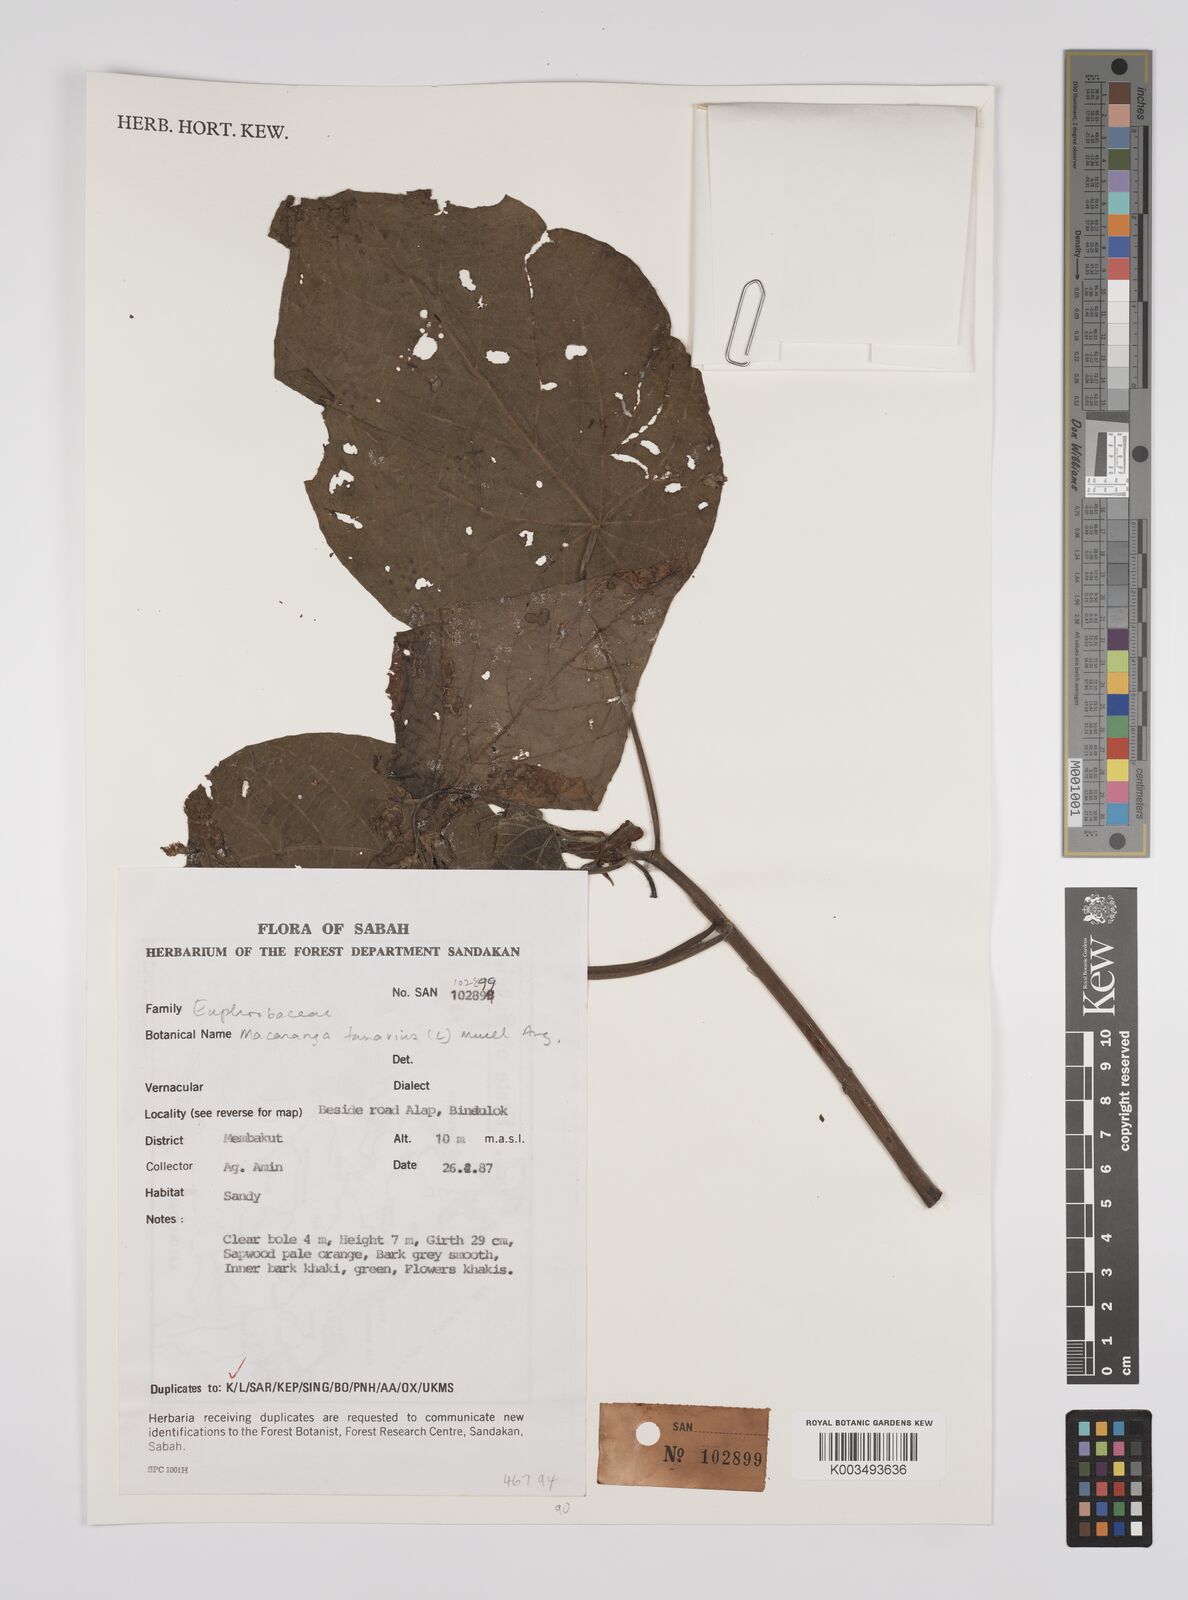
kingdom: Plantae
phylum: Tracheophyta
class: Magnoliopsida
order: Malpighiales
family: Euphorbiaceae
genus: Macaranga
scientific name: Macaranga tanarius
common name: Parasol leaf tree
